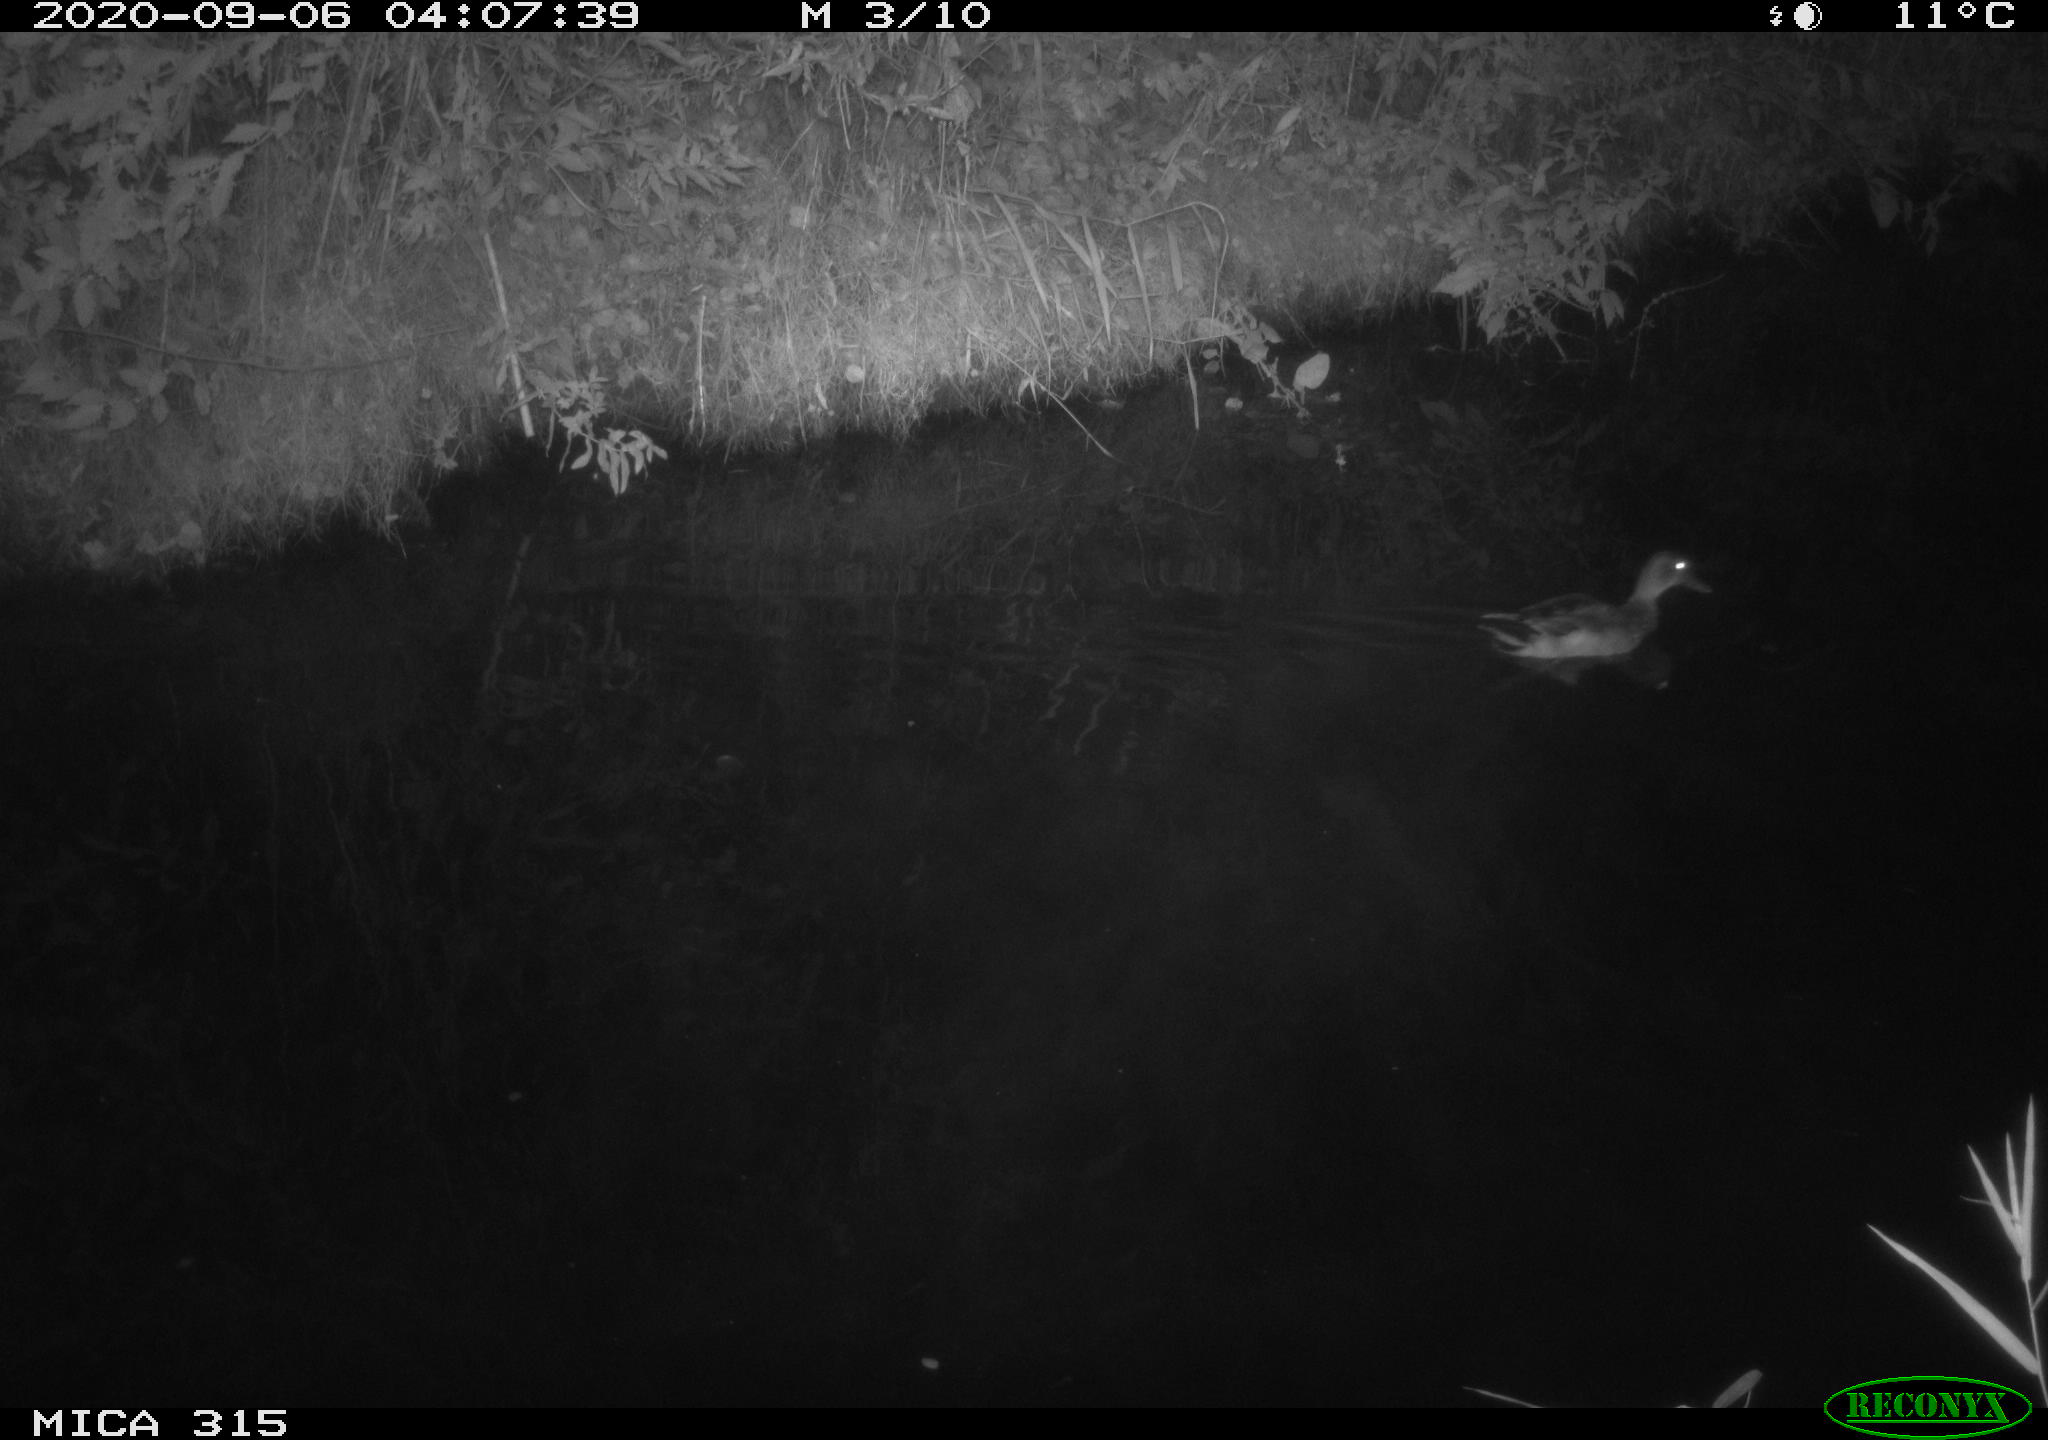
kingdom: Animalia
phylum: Chordata
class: Aves
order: Anseriformes
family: Anatidae
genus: Anas
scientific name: Anas platyrhynchos
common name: Mallard
